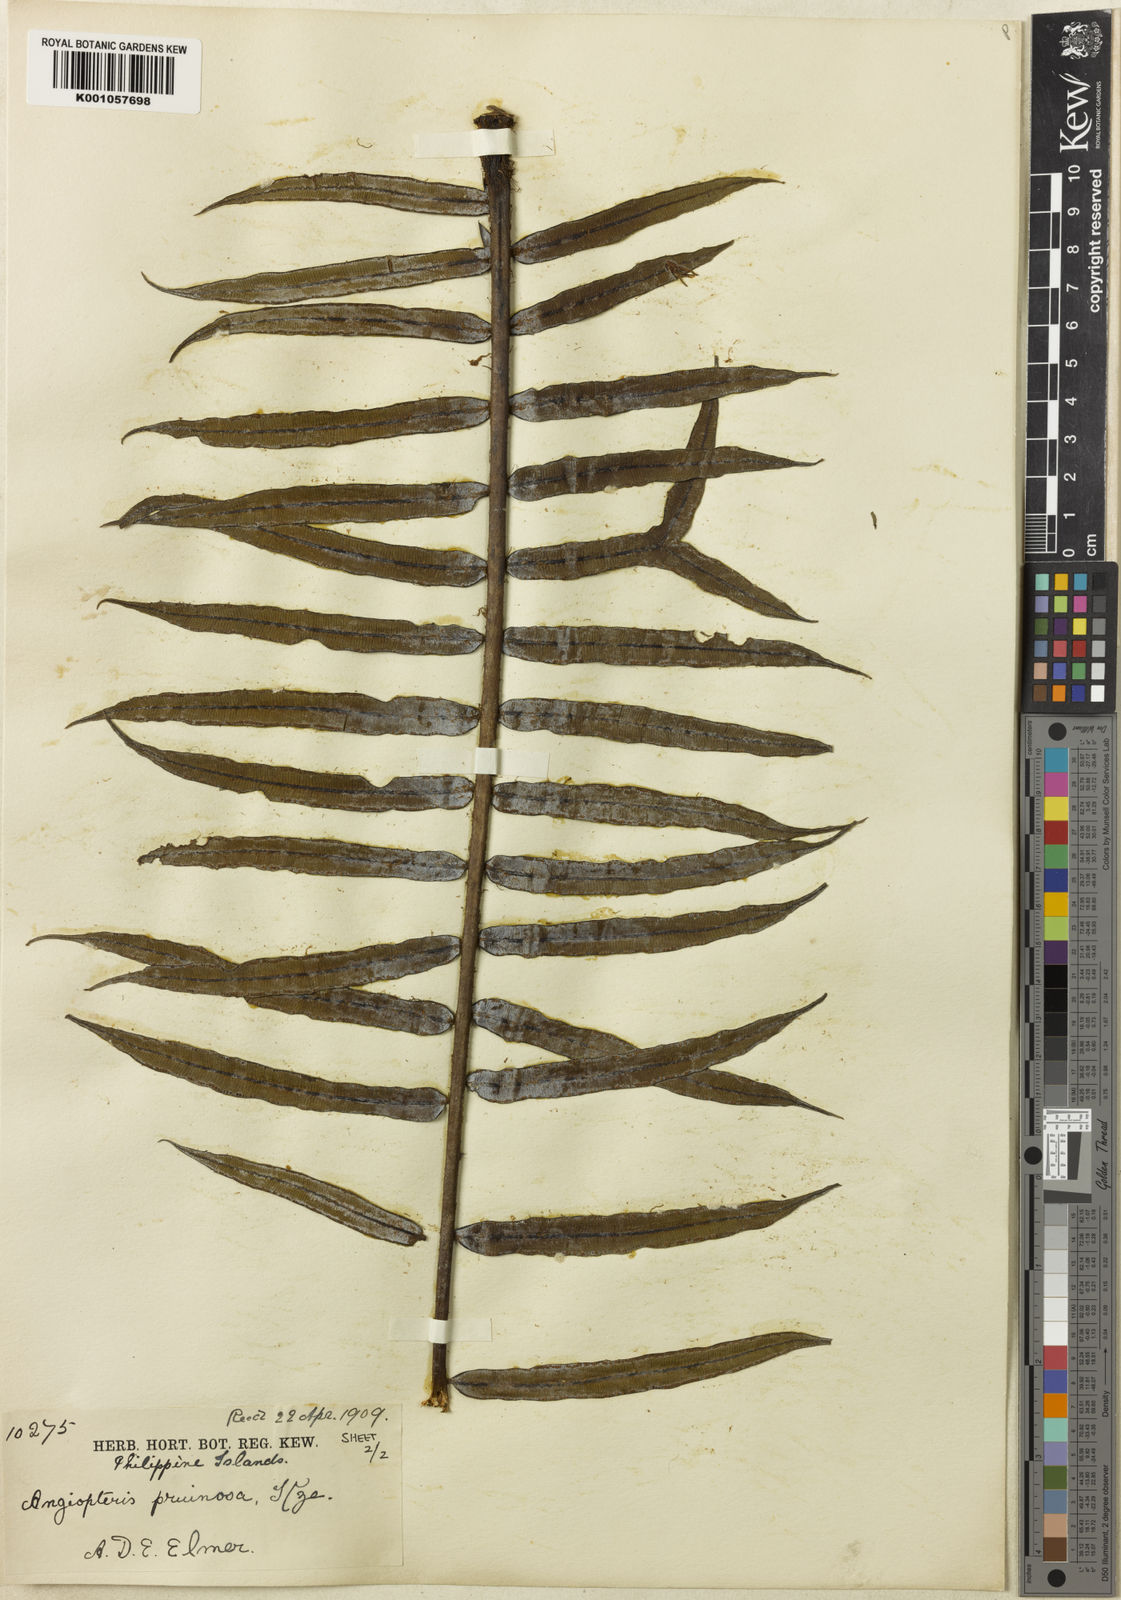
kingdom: Plantae
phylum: Tracheophyta
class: Polypodiopsida
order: Marattiales
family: Marattiaceae
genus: Angiopteris
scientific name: Angiopteris pruinosa
